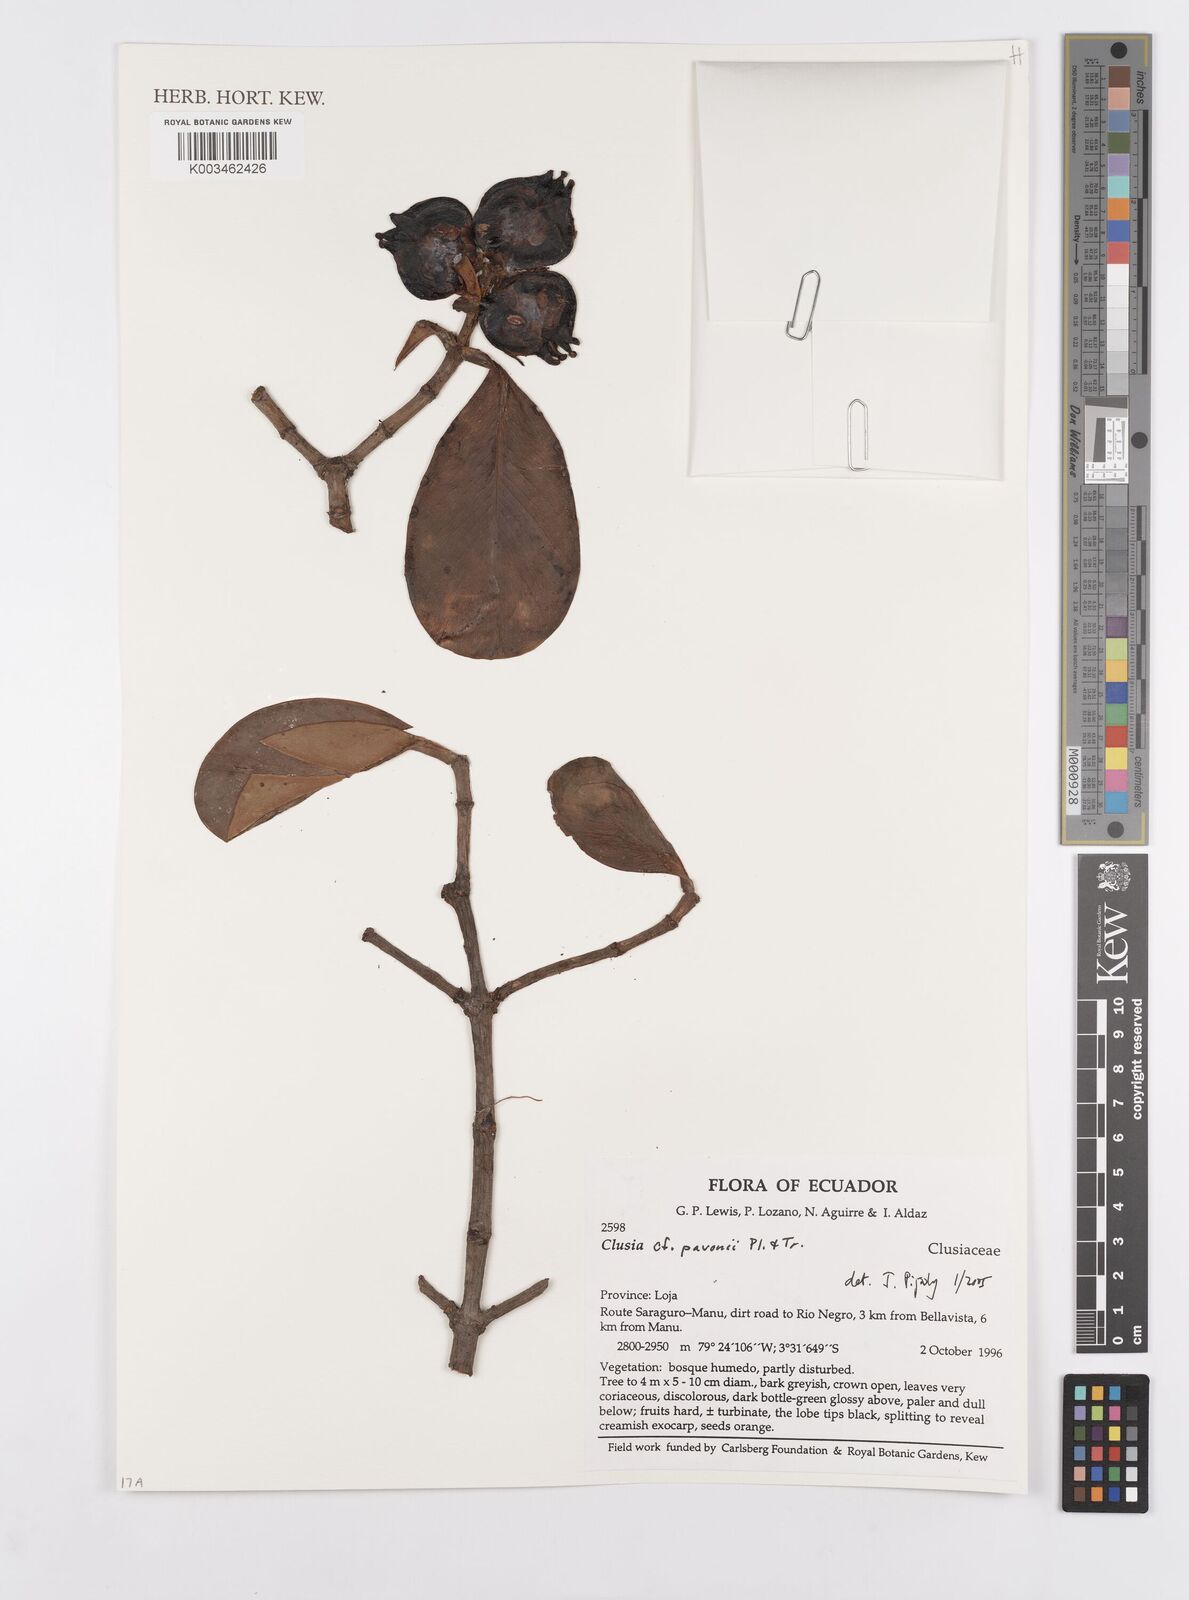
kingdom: Plantae
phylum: Tracheophyta
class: Magnoliopsida
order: Malpighiales
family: Clusiaceae
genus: Clusia
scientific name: Clusia pavonii
